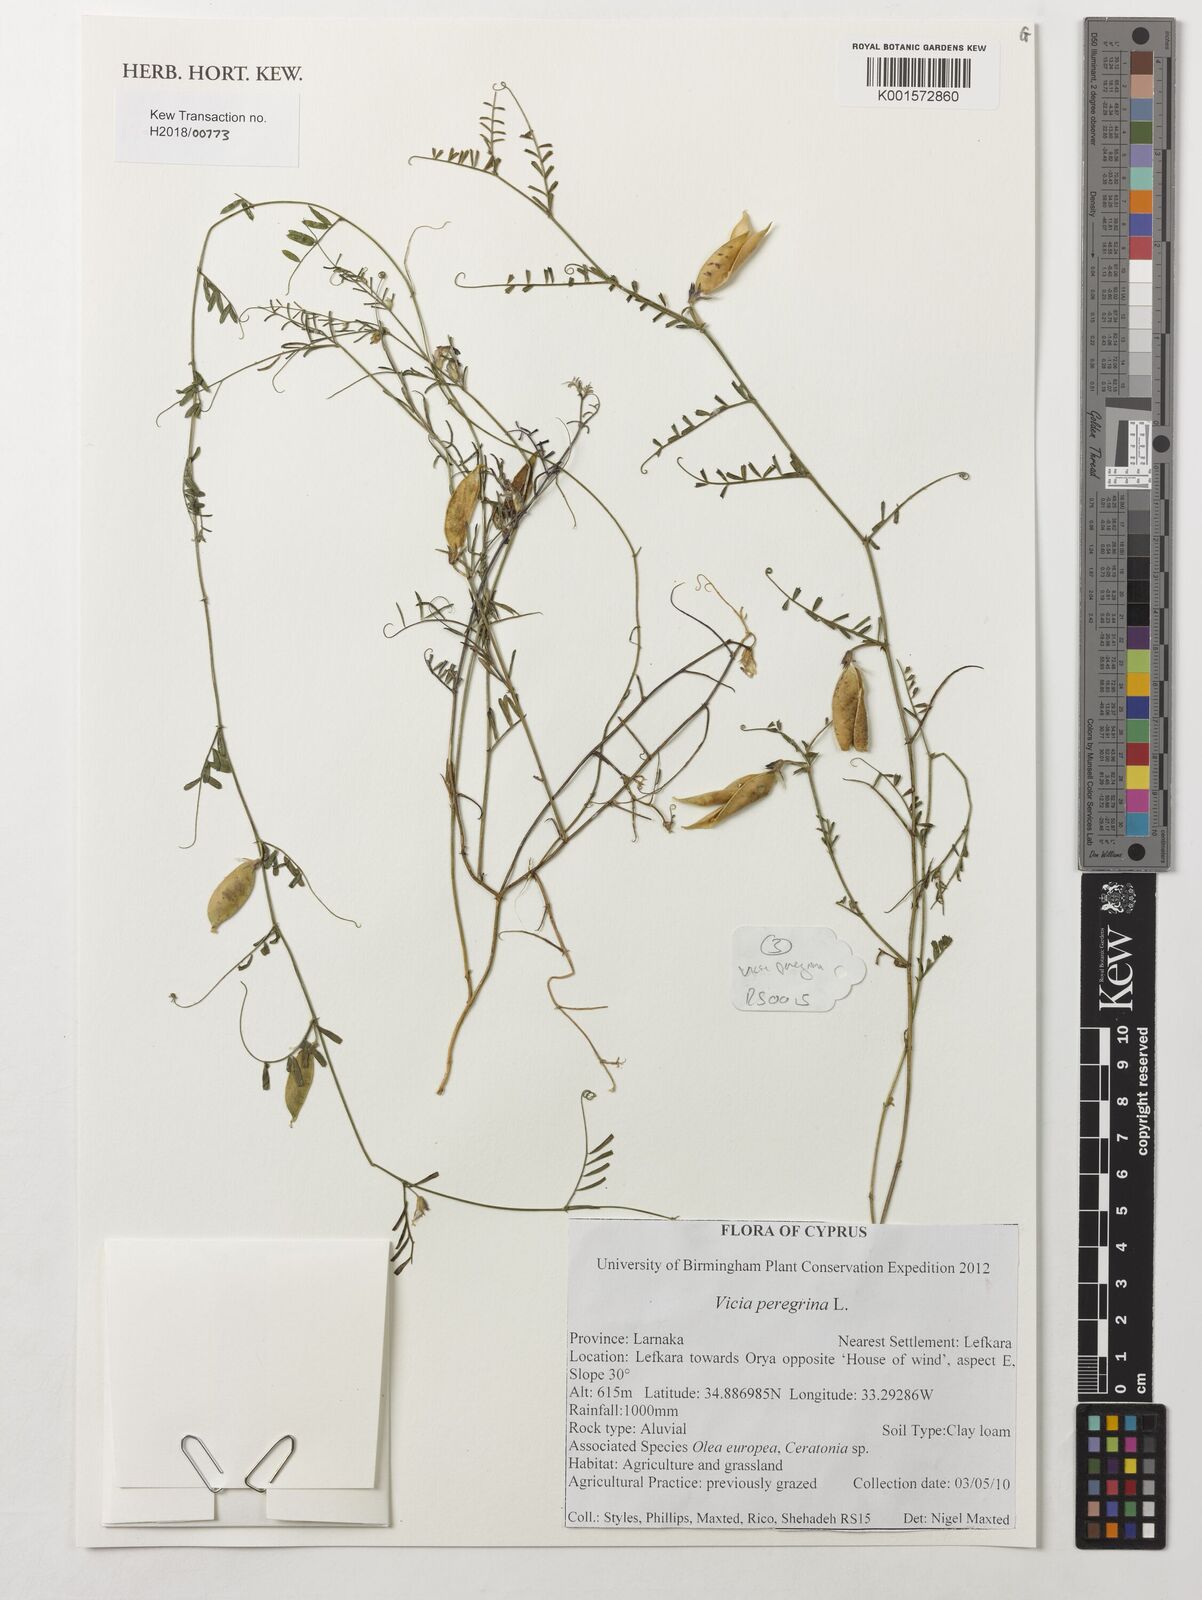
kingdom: Plantae
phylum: Tracheophyta
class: Magnoliopsida
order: Fabales
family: Fabaceae
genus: Vicia
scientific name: Vicia peregrina
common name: Broad-pod vetch
